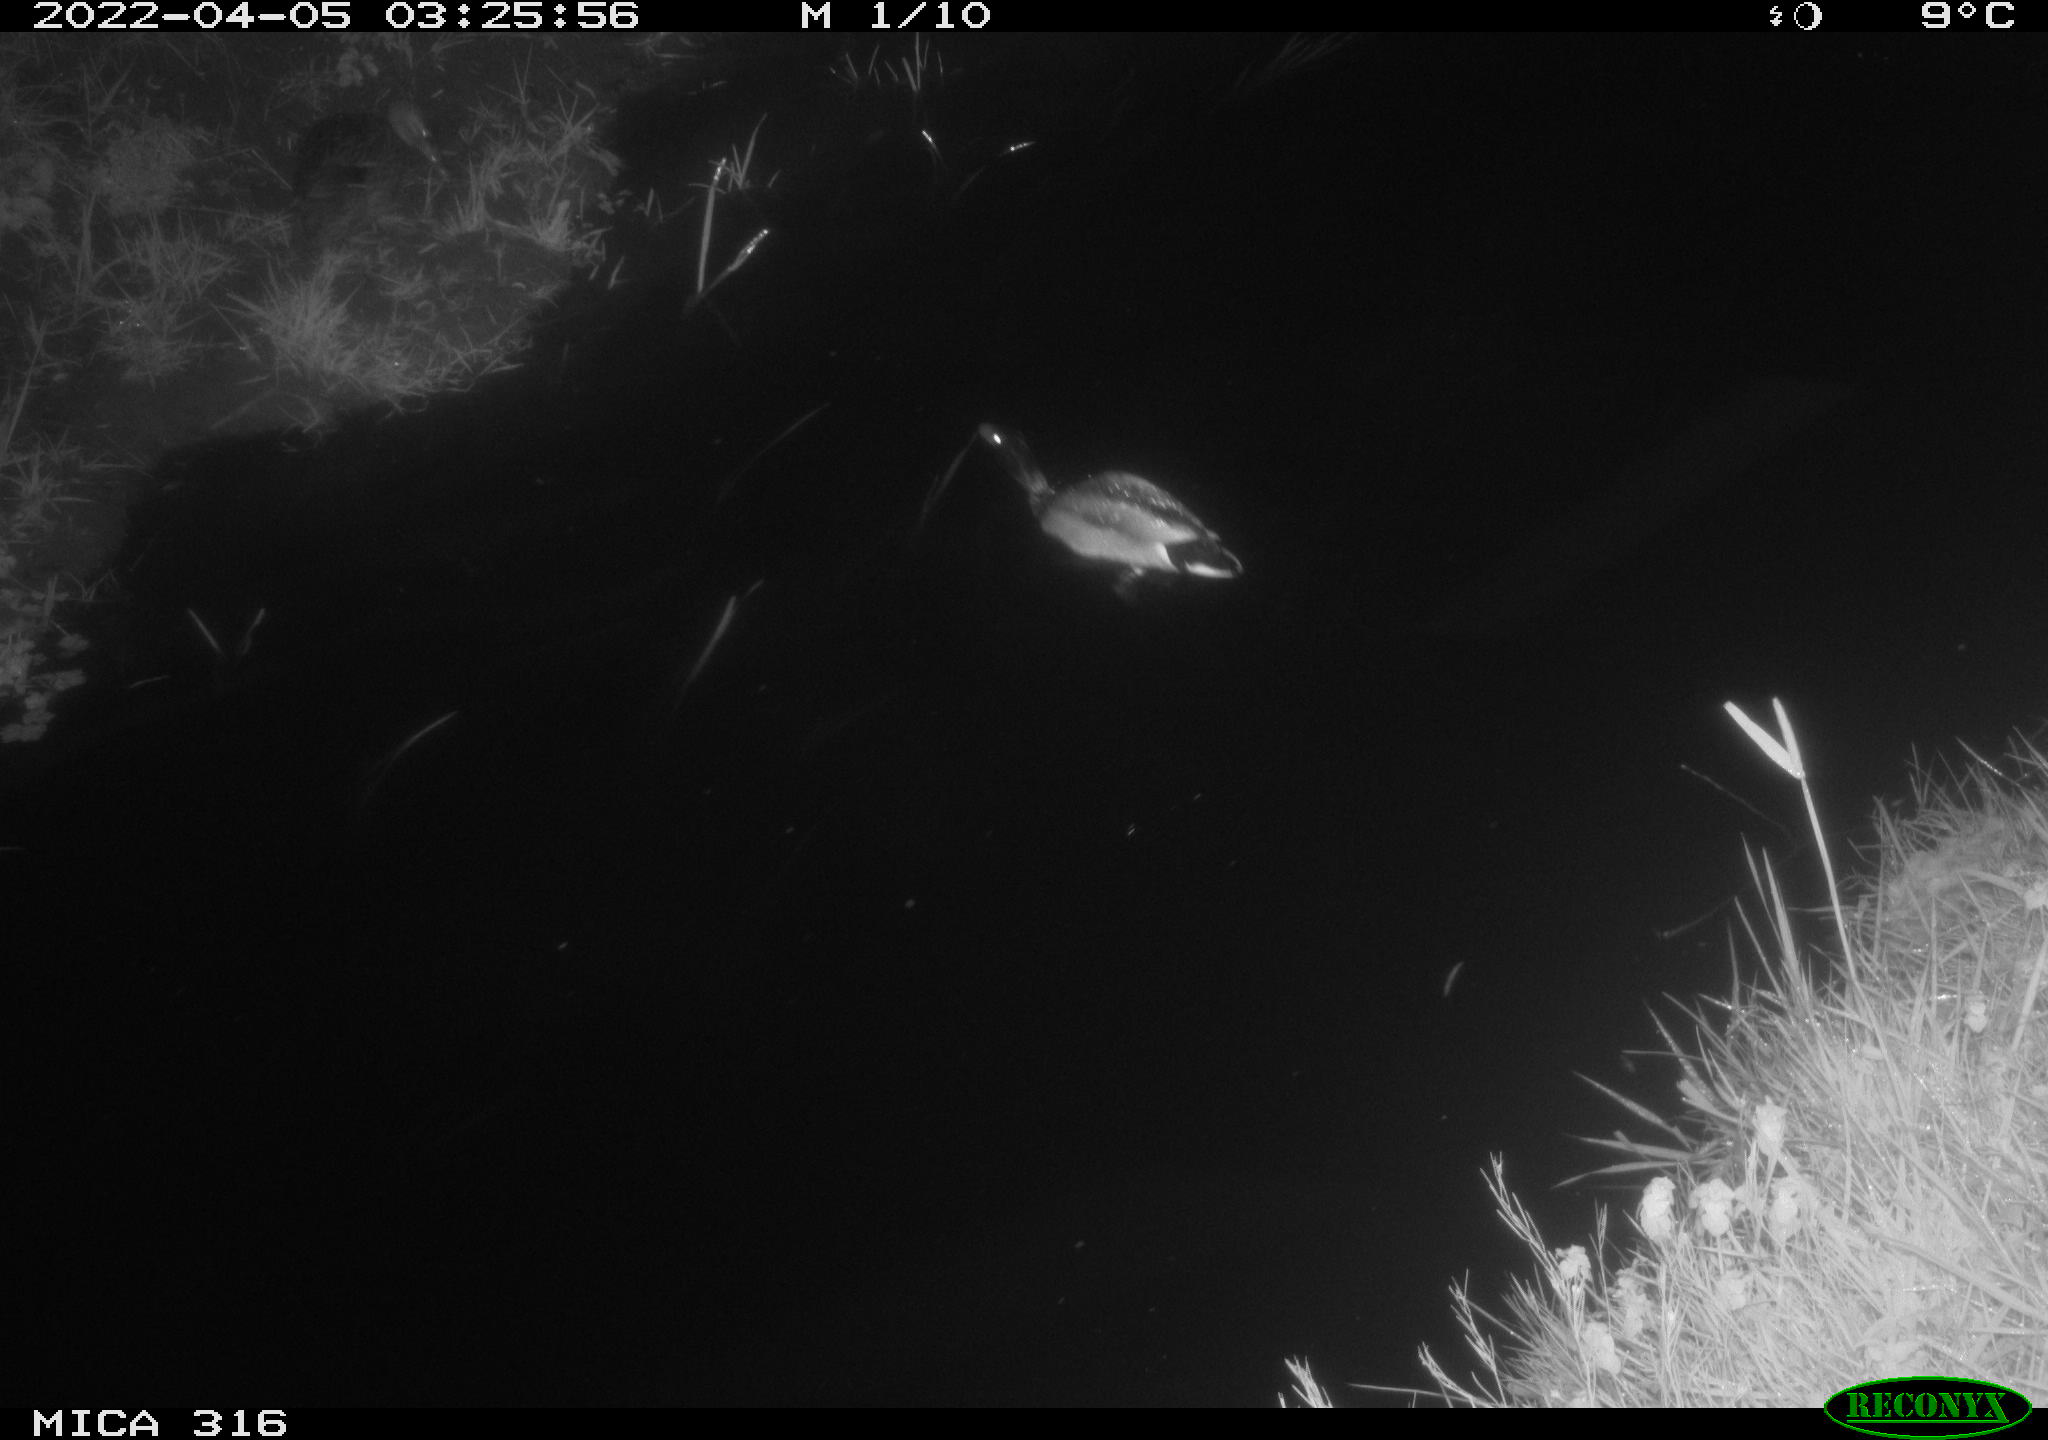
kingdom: Animalia
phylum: Chordata
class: Aves
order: Anseriformes
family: Anatidae
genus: Anas
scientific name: Anas platyrhynchos
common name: Mallard
